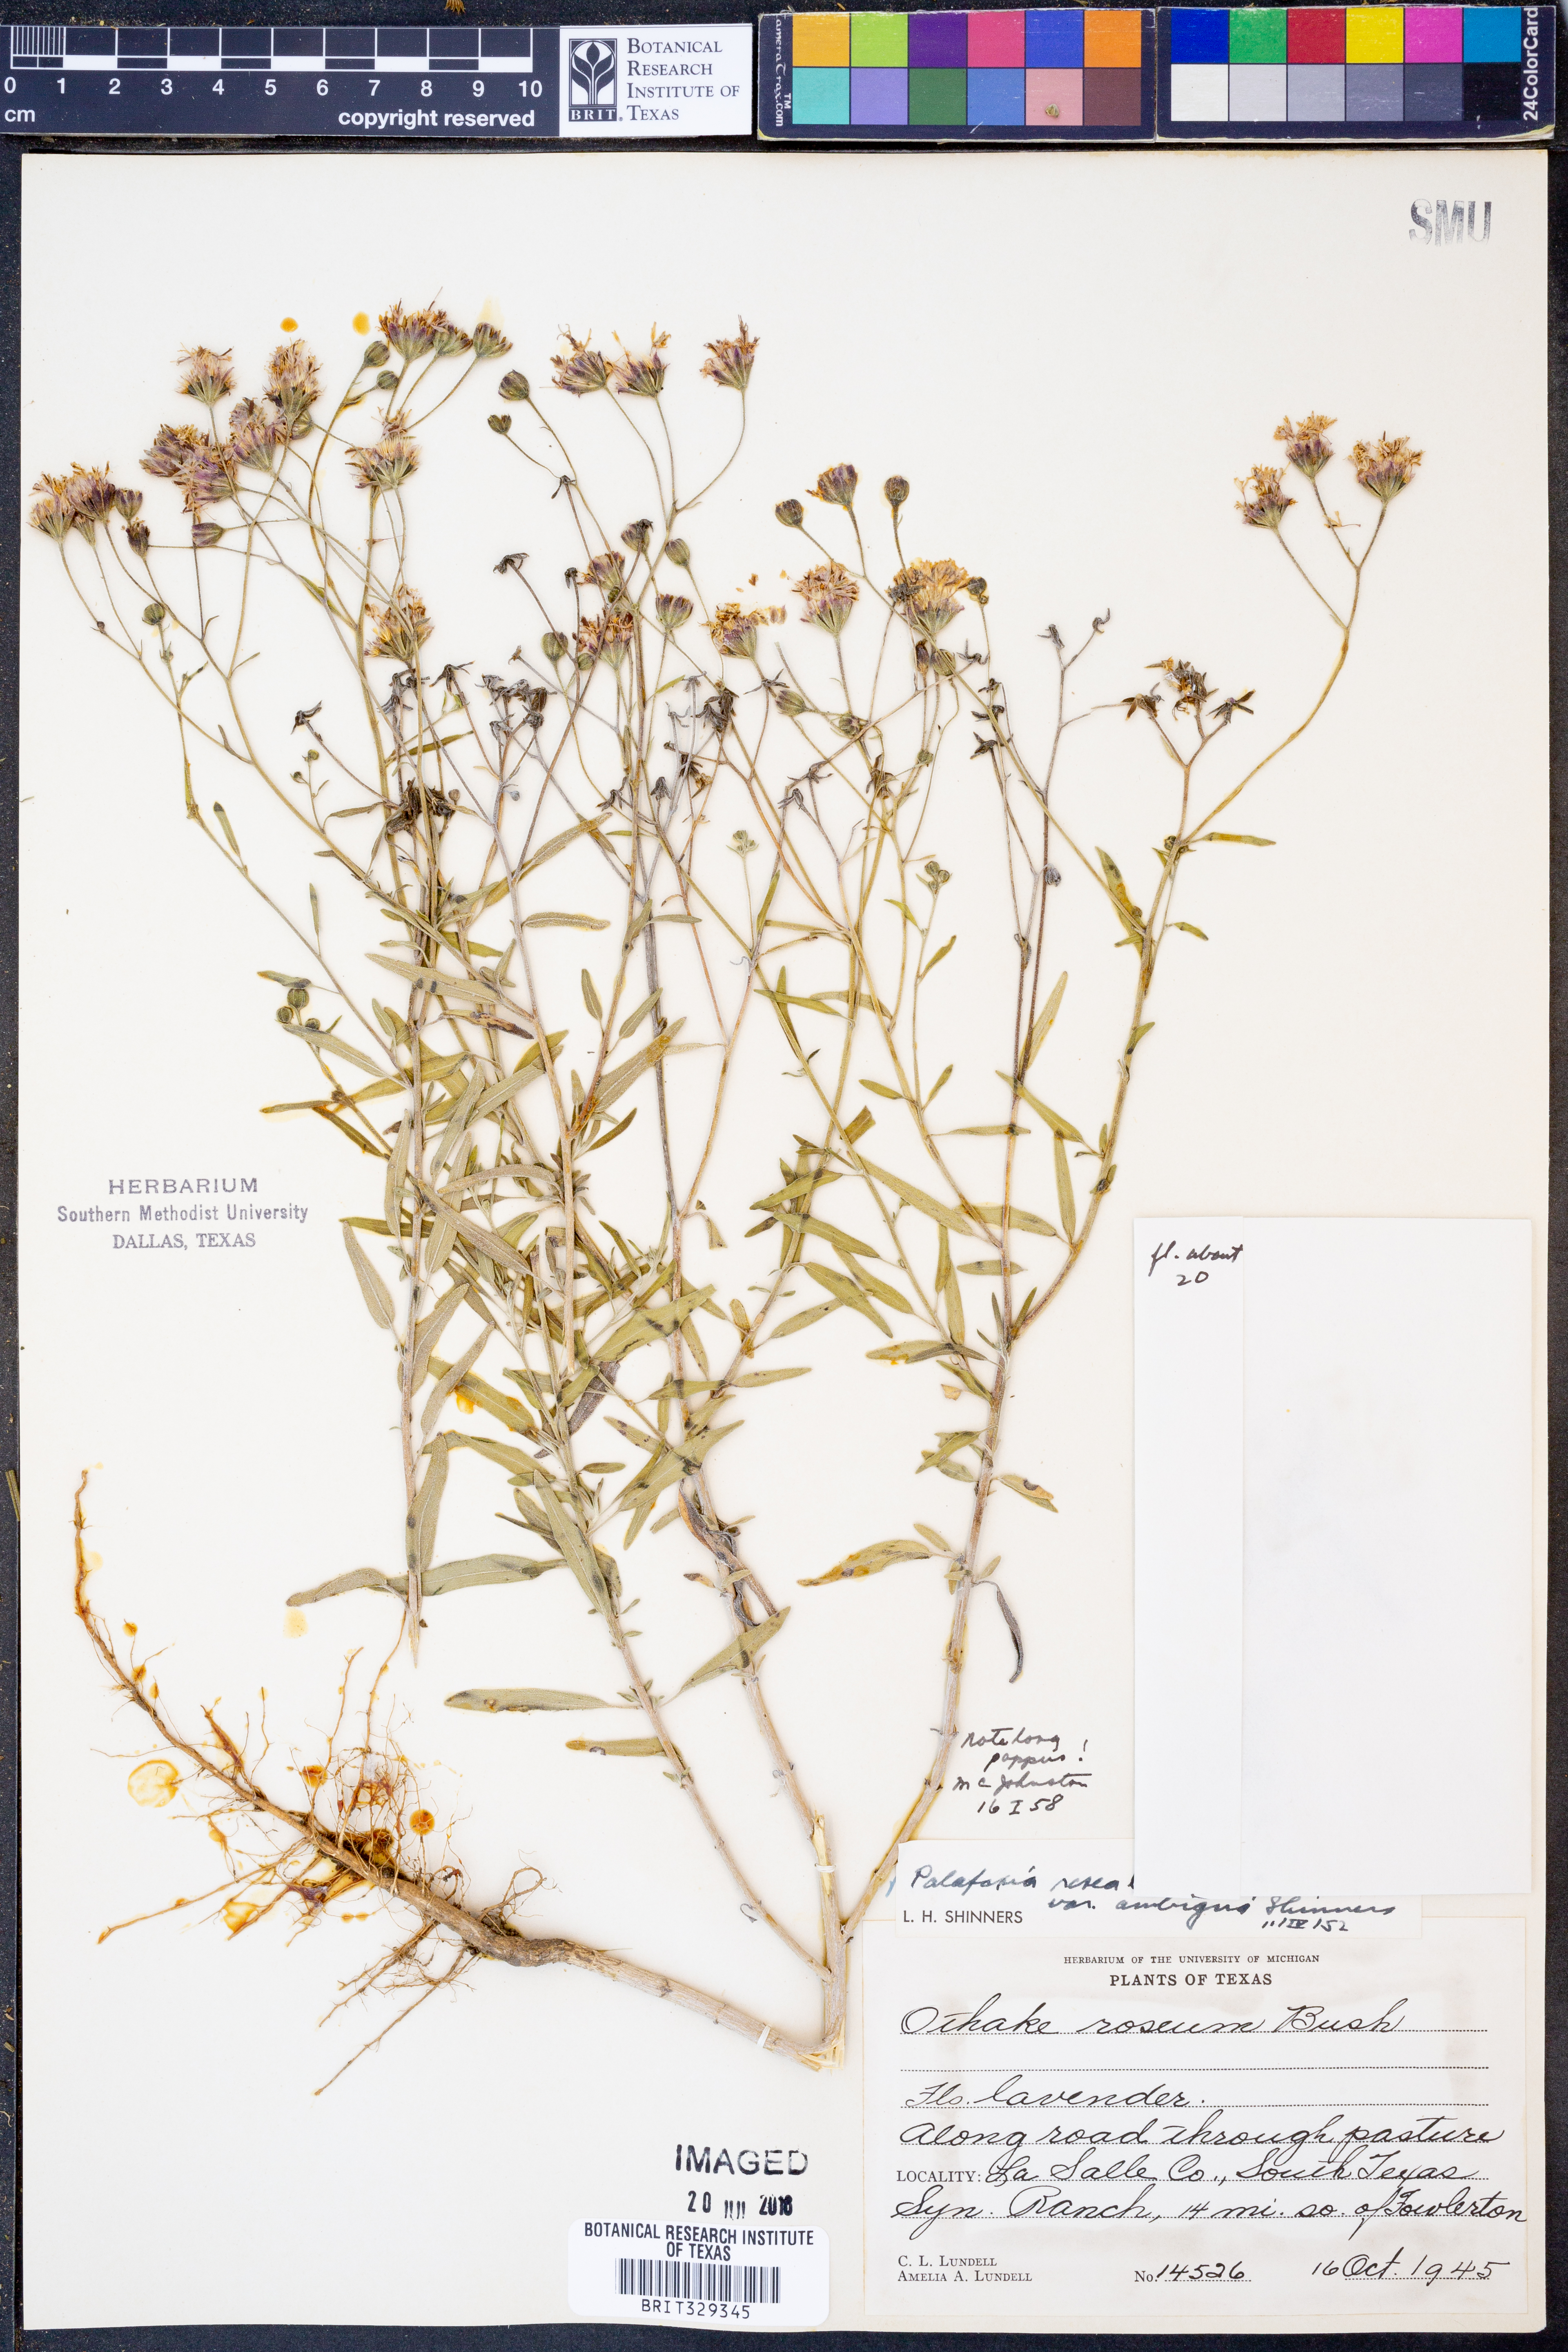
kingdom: Plantae
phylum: Tracheophyta
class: Magnoliopsida
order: Asterales
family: Asteraceae
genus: Palafoxia
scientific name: Palafoxia texana
